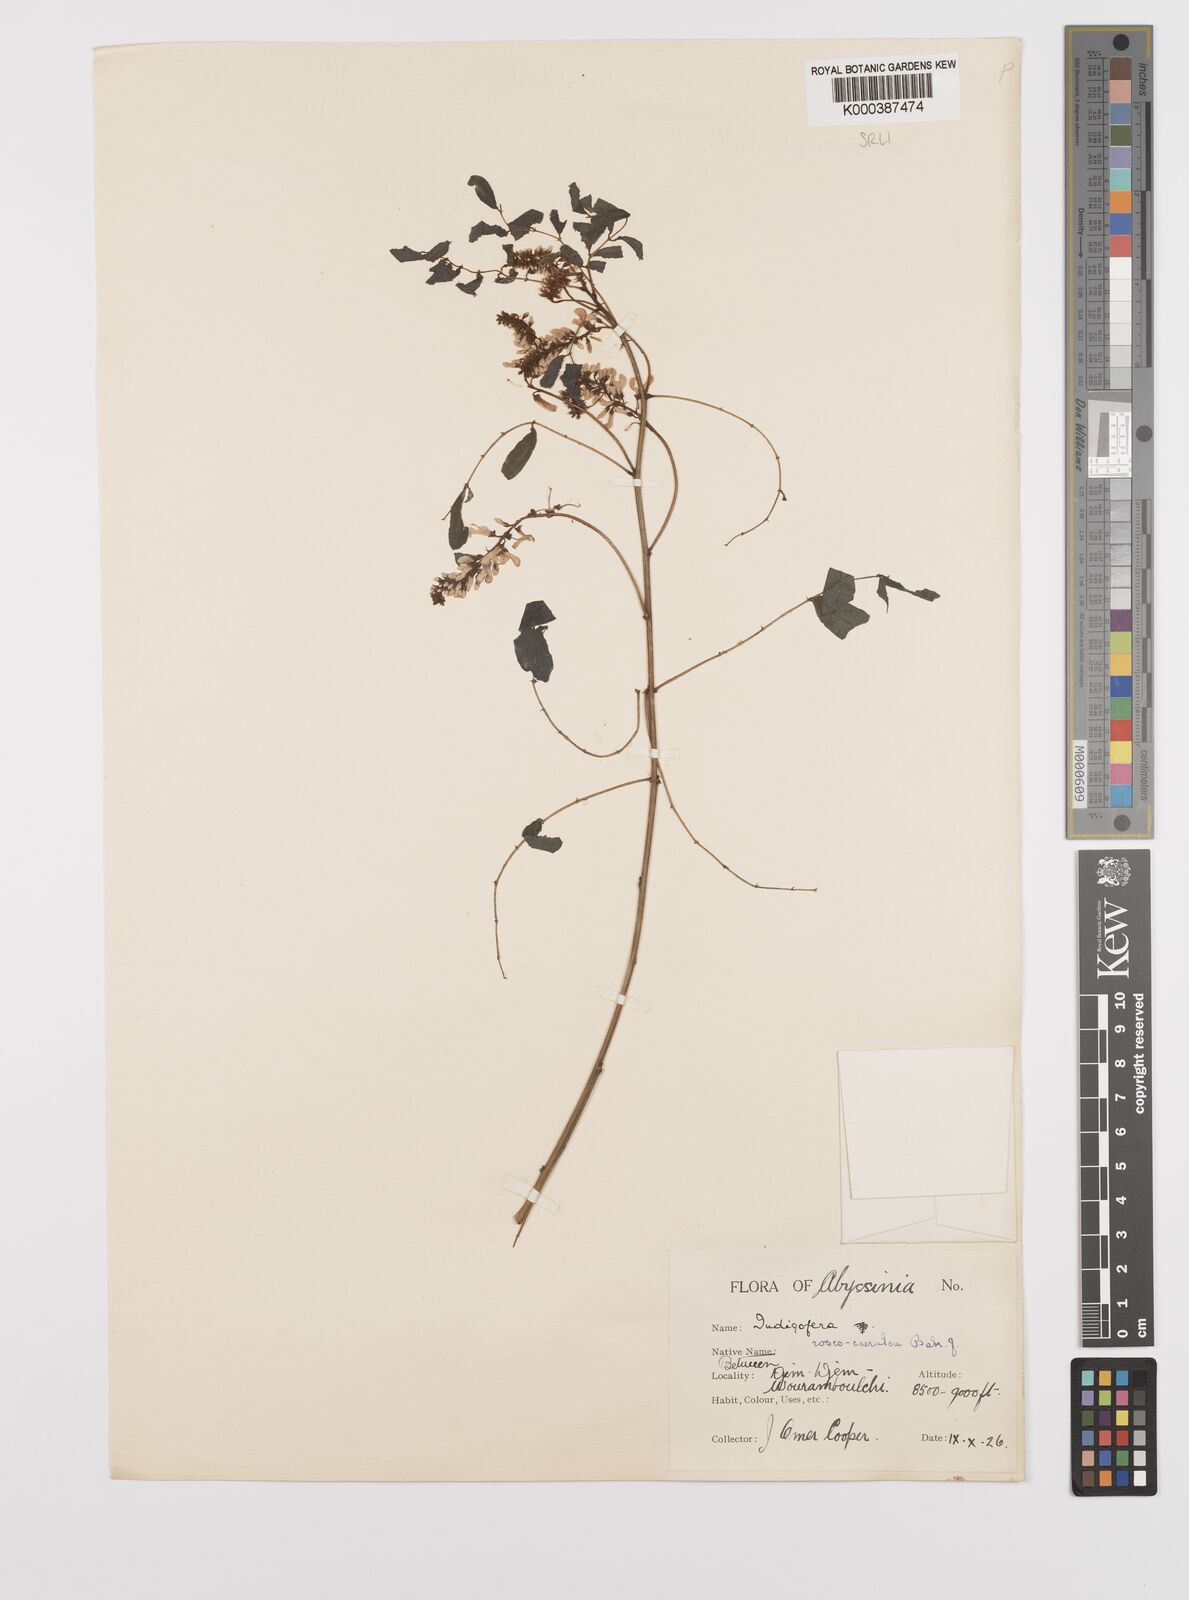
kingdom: Plantae
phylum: Tracheophyta
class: Magnoliopsida
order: Fabales
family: Fabaceae
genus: Indigofera
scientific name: Indigofera roseocaerulea
